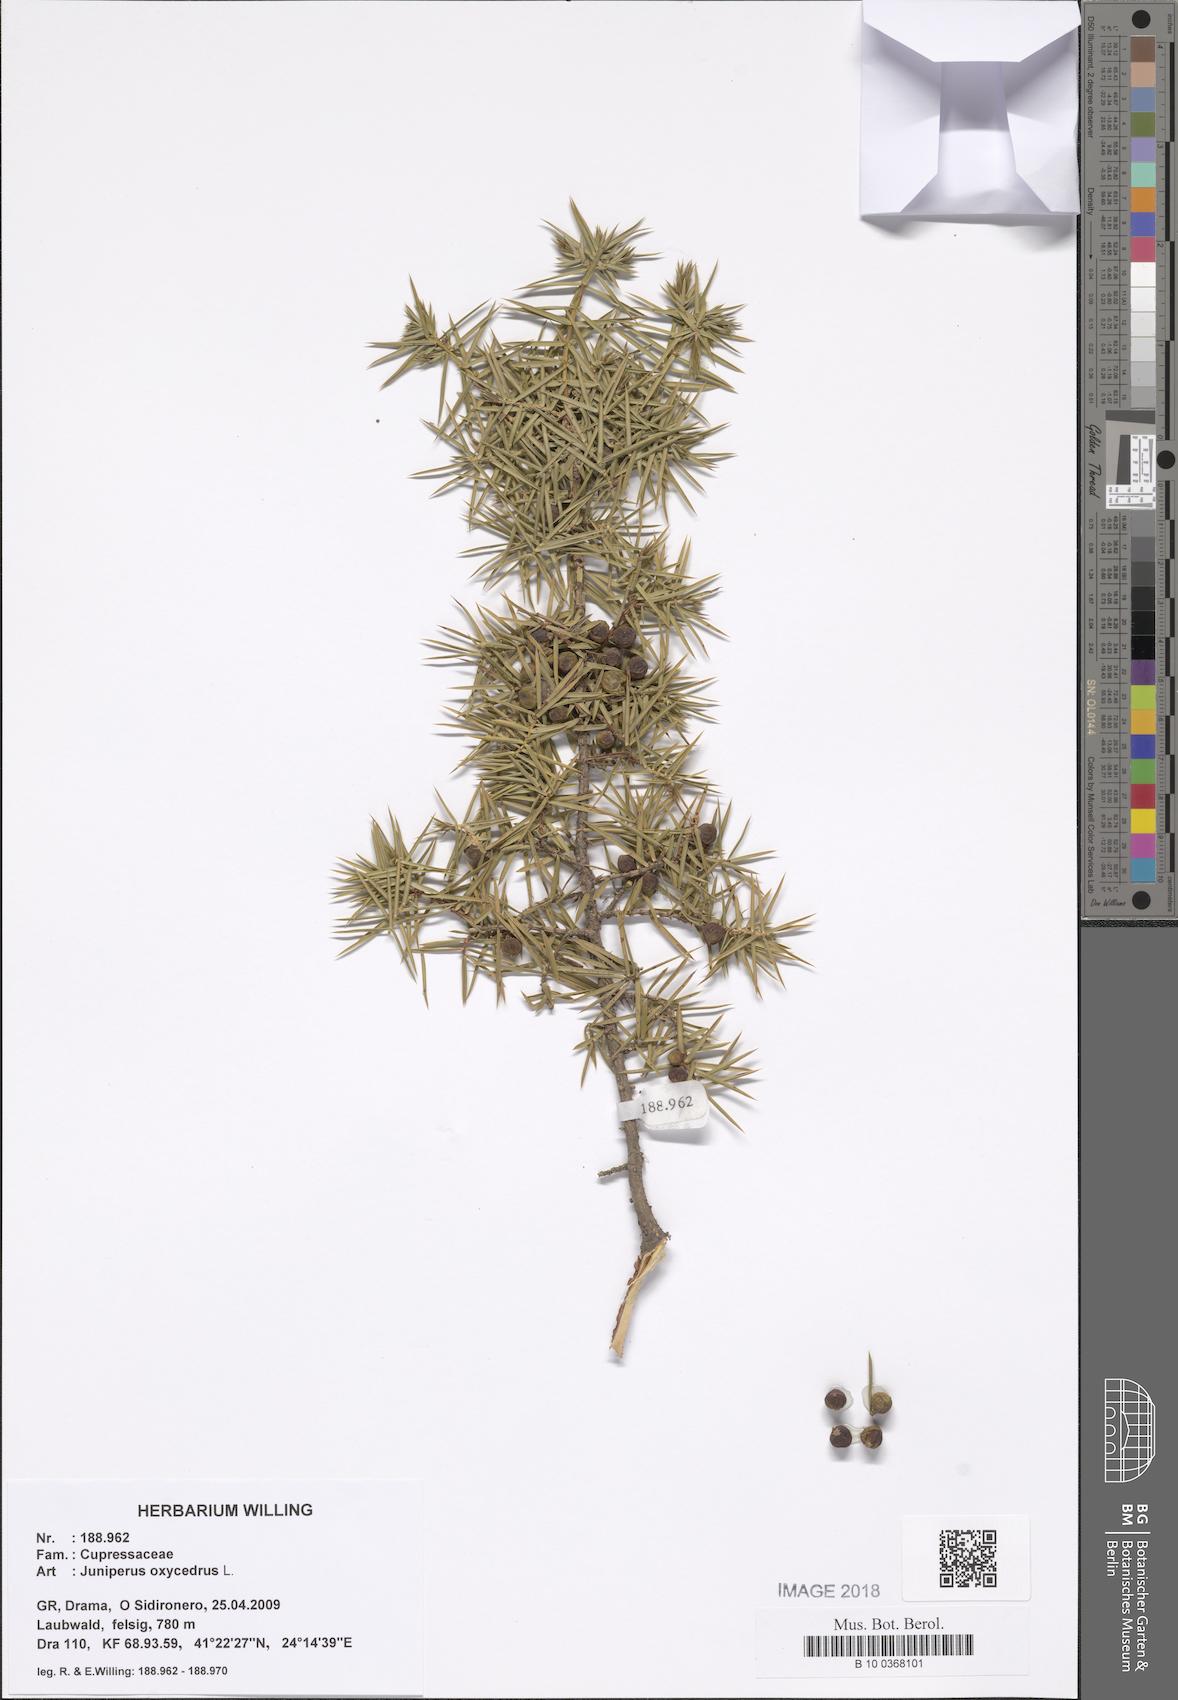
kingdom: Plantae
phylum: Tracheophyta
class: Pinopsida
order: Pinales
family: Cupressaceae
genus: Juniperus
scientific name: Juniperus
